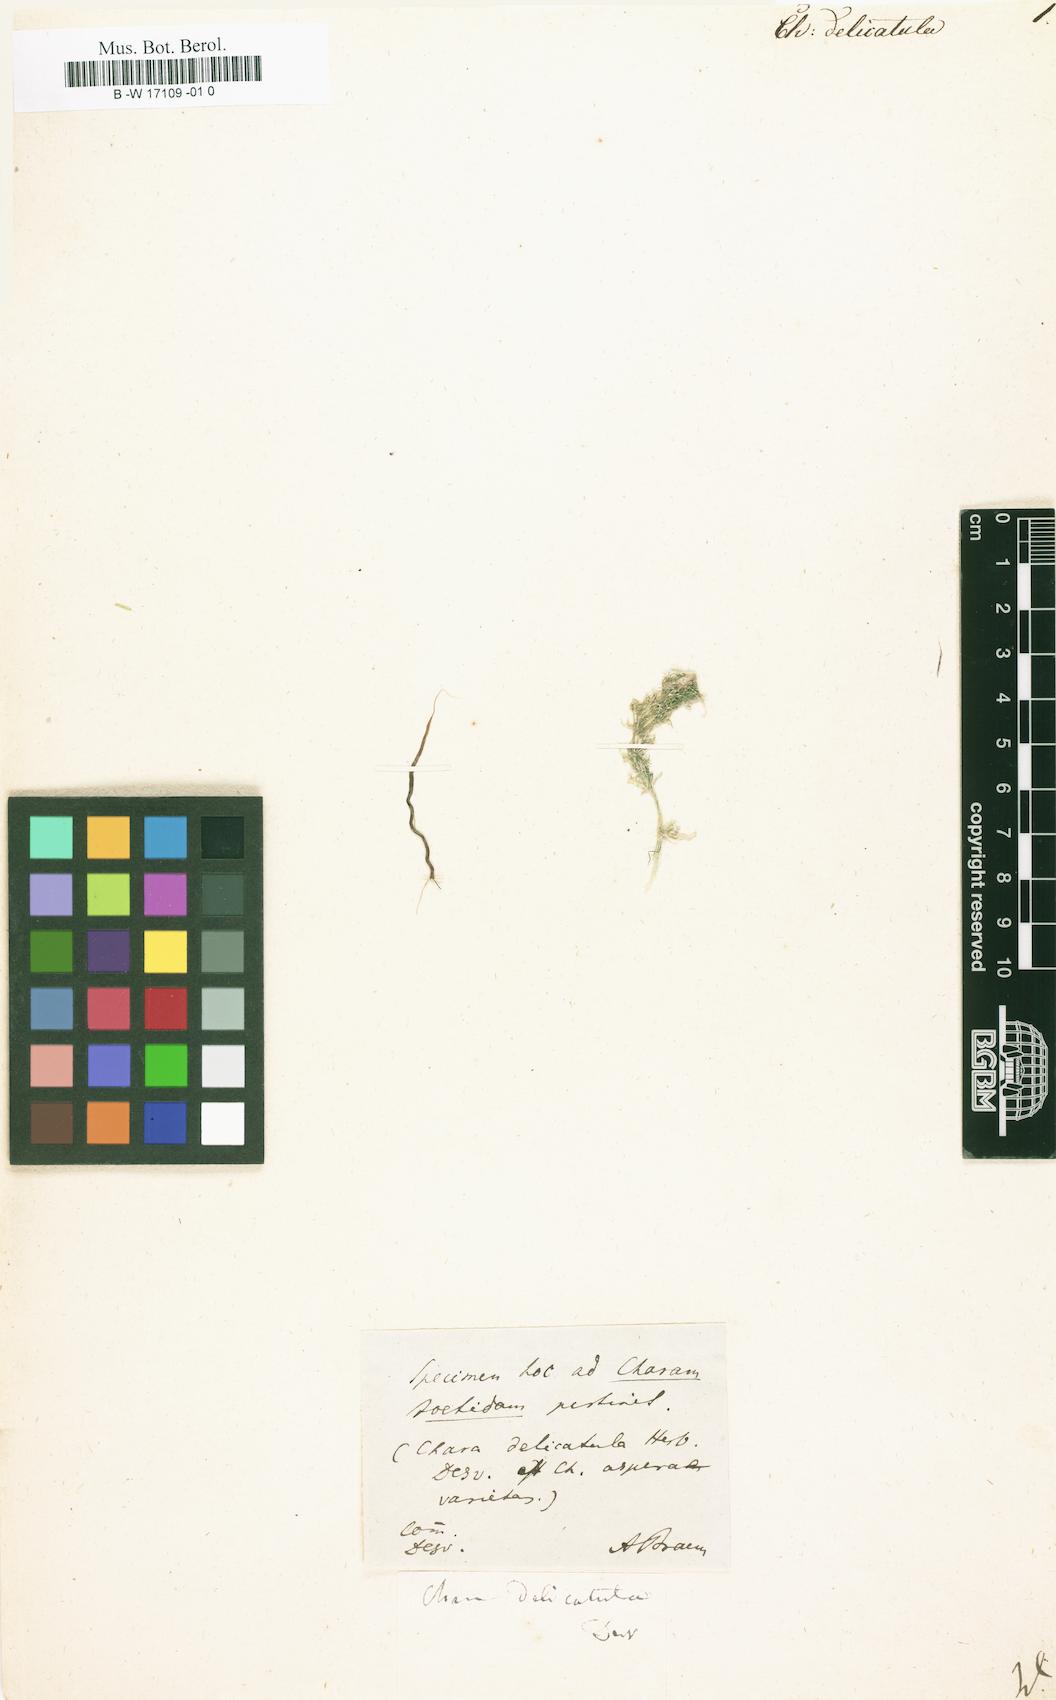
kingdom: Plantae
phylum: Charophyta
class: Charophyceae
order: Charales
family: Characeae
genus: Chara
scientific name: Chara
